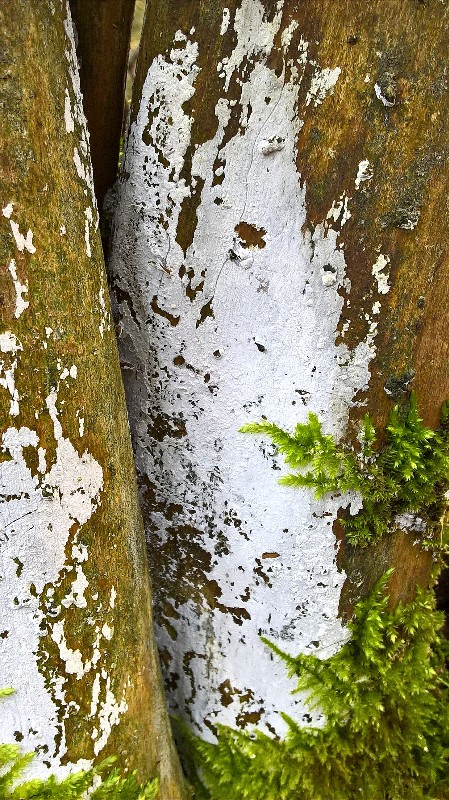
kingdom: Fungi
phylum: Basidiomycota
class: Agaricomycetes
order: Corticiales
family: Corticiaceae
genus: Lyomyces
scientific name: Lyomyces sambuci
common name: almindelig hyldehinde
